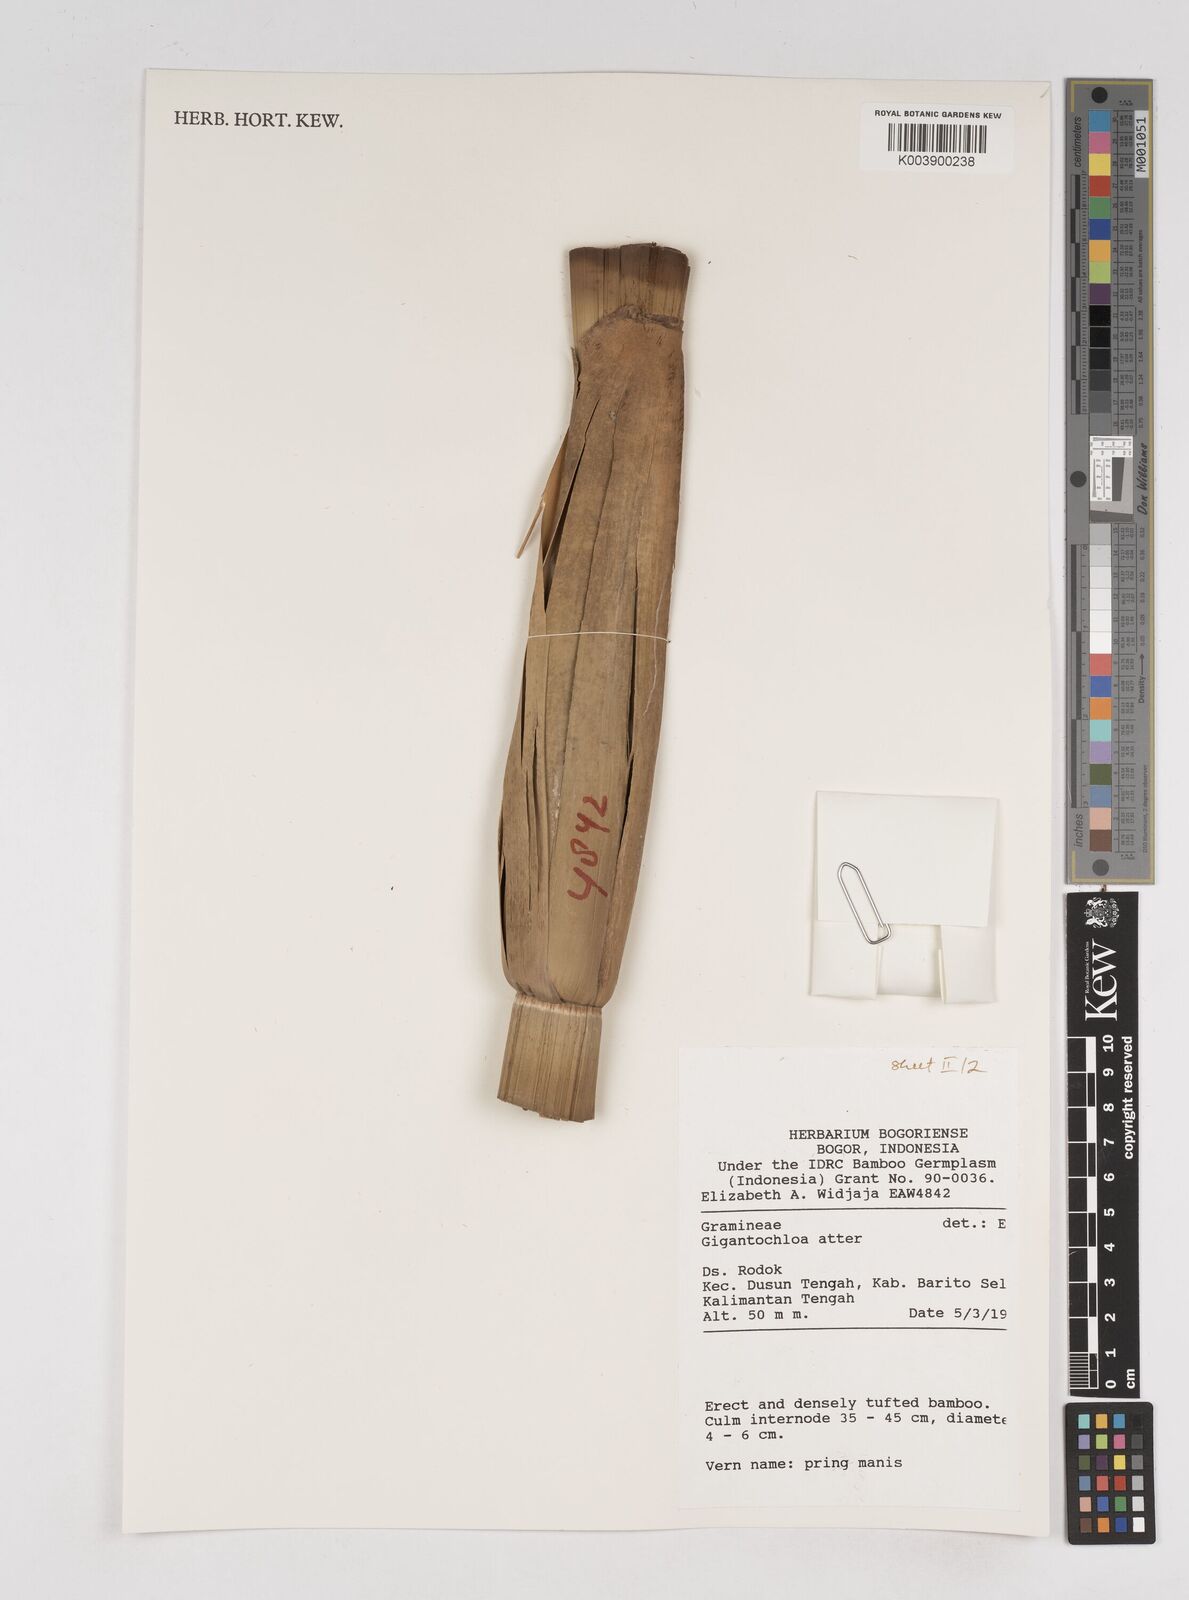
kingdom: Plantae
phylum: Tracheophyta
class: Liliopsida
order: Poales
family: Poaceae
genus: Gigantochloa
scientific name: Gigantochloa atter
